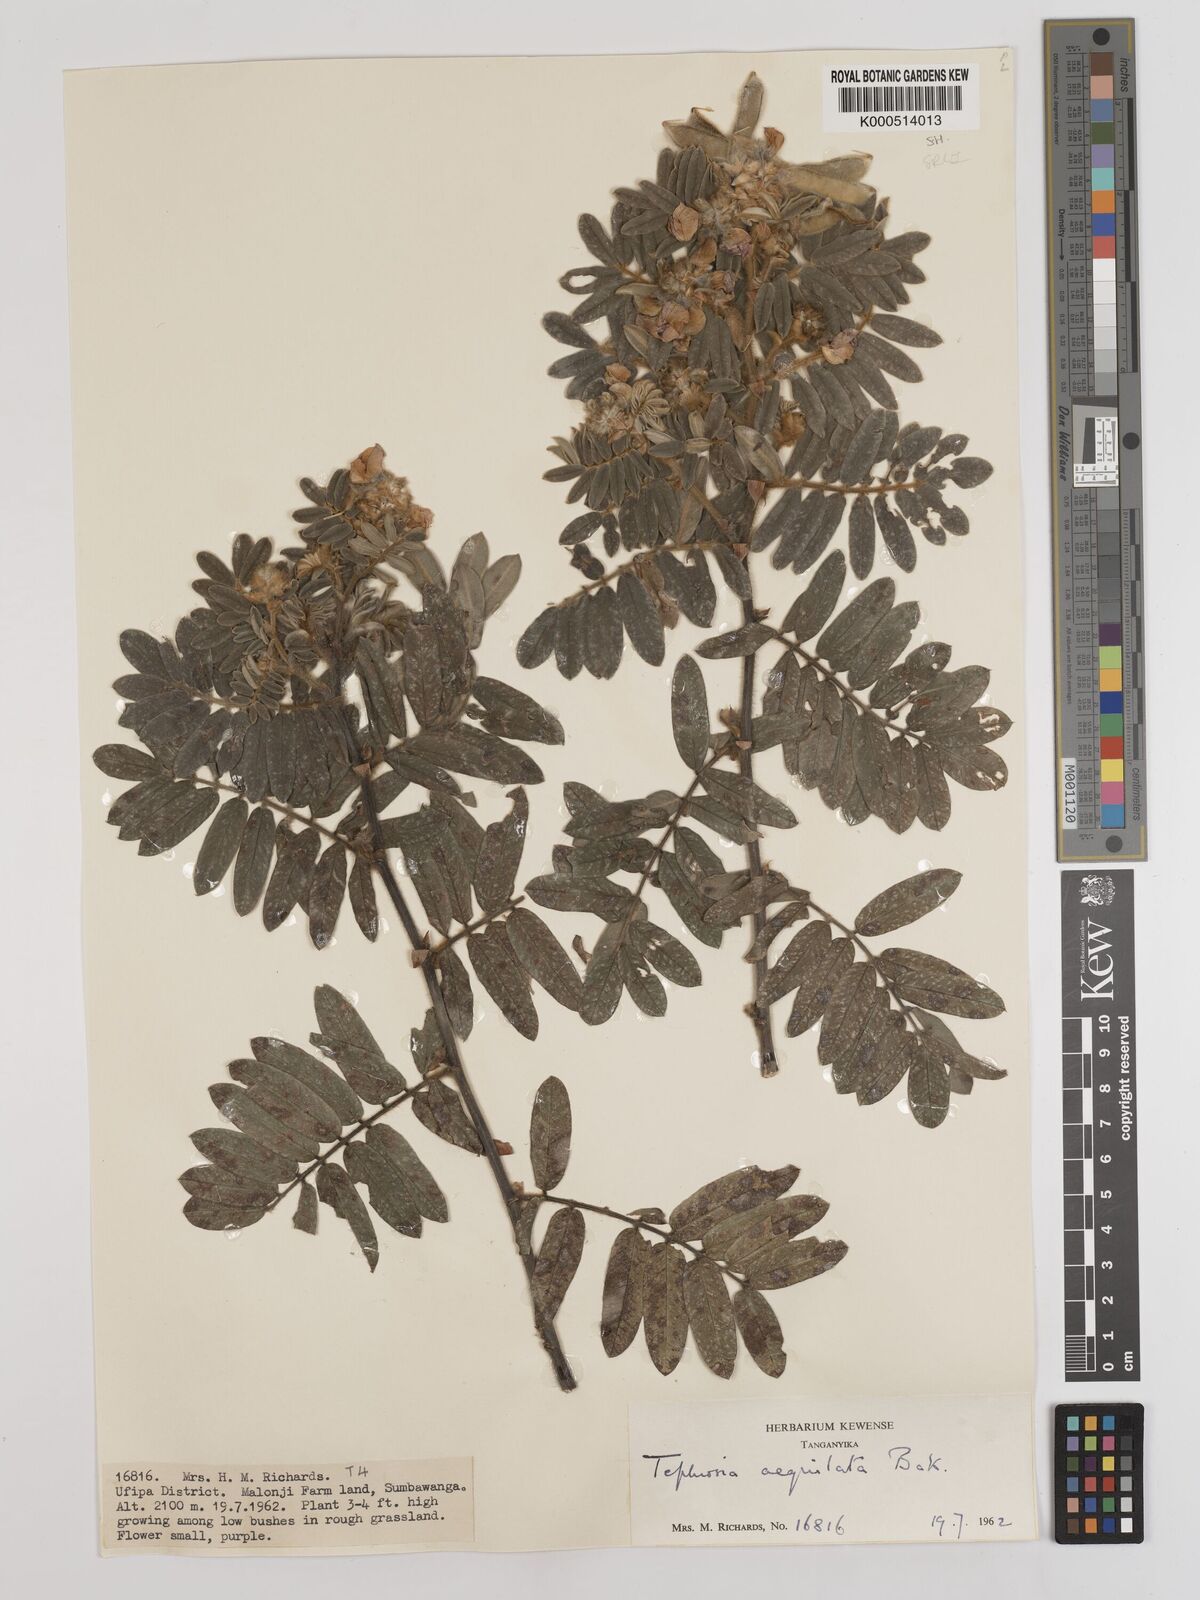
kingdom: Plantae
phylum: Tracheophyta
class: Magnoliopsida
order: Fabales
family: Fabaceae
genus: Tephrosia
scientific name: Tephrosia aequilata
